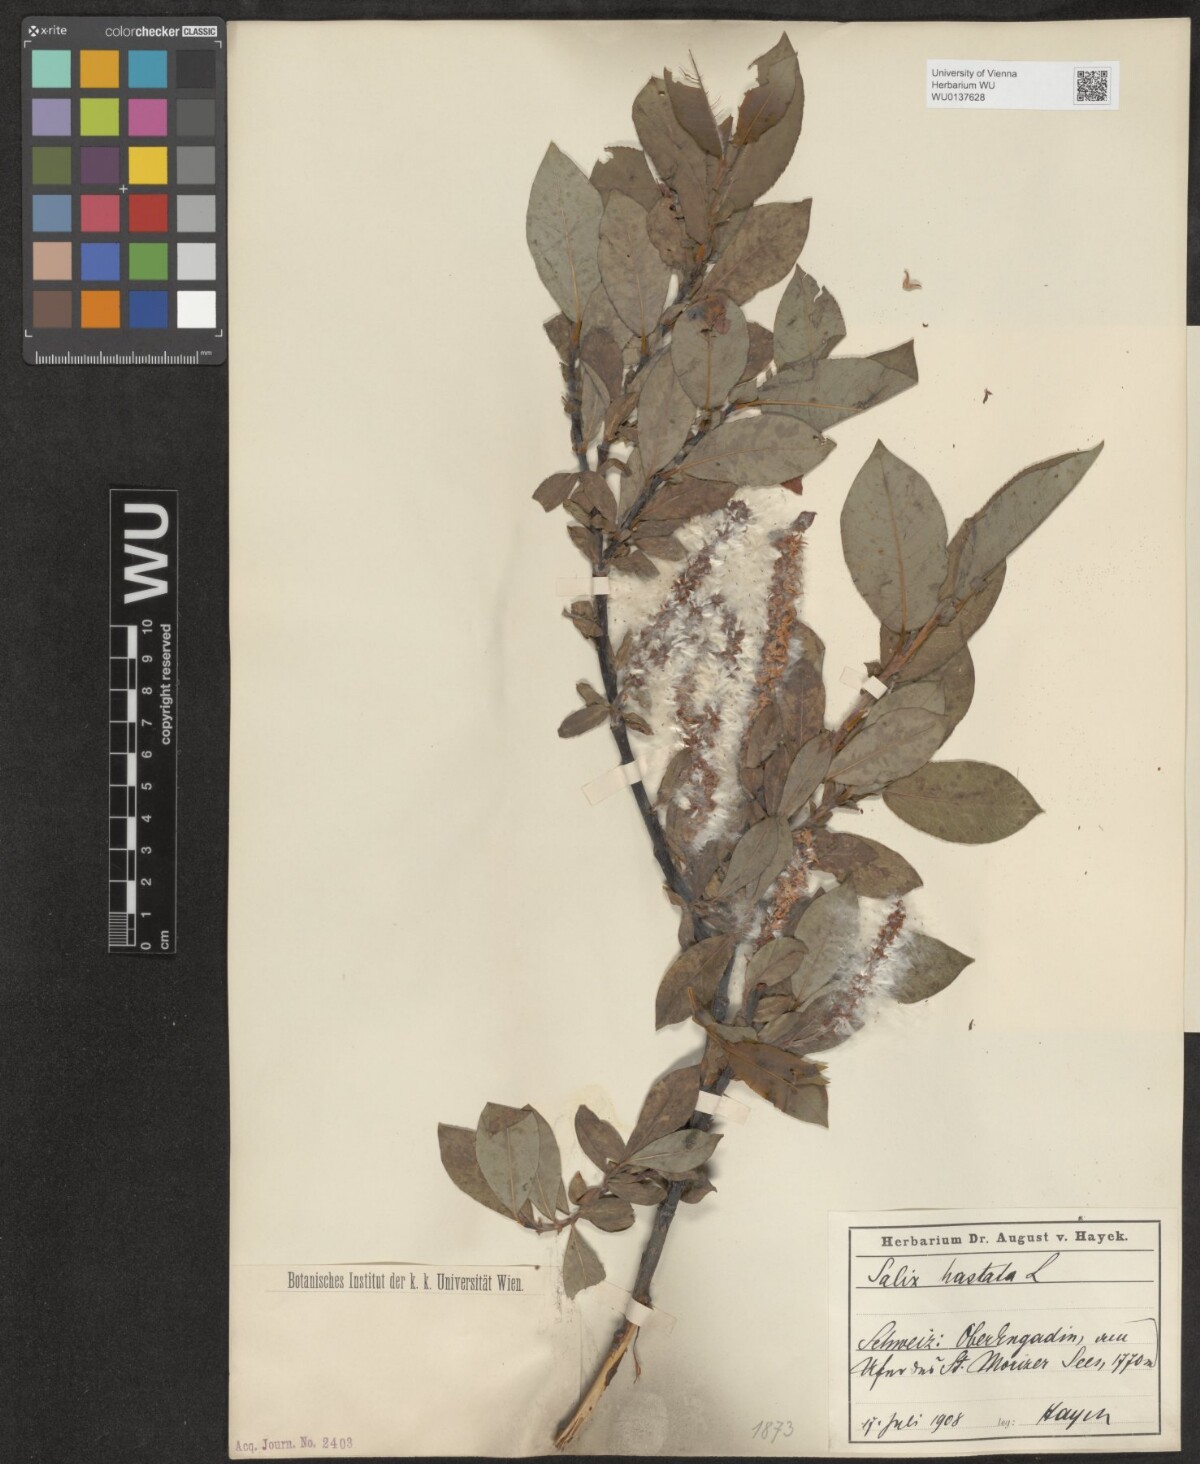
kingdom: Plantae
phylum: Tracheophyta
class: Magnoliopsida
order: Malpighiales
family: Salicaceae
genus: Salix
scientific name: Salix hastata
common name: Halberd willow
